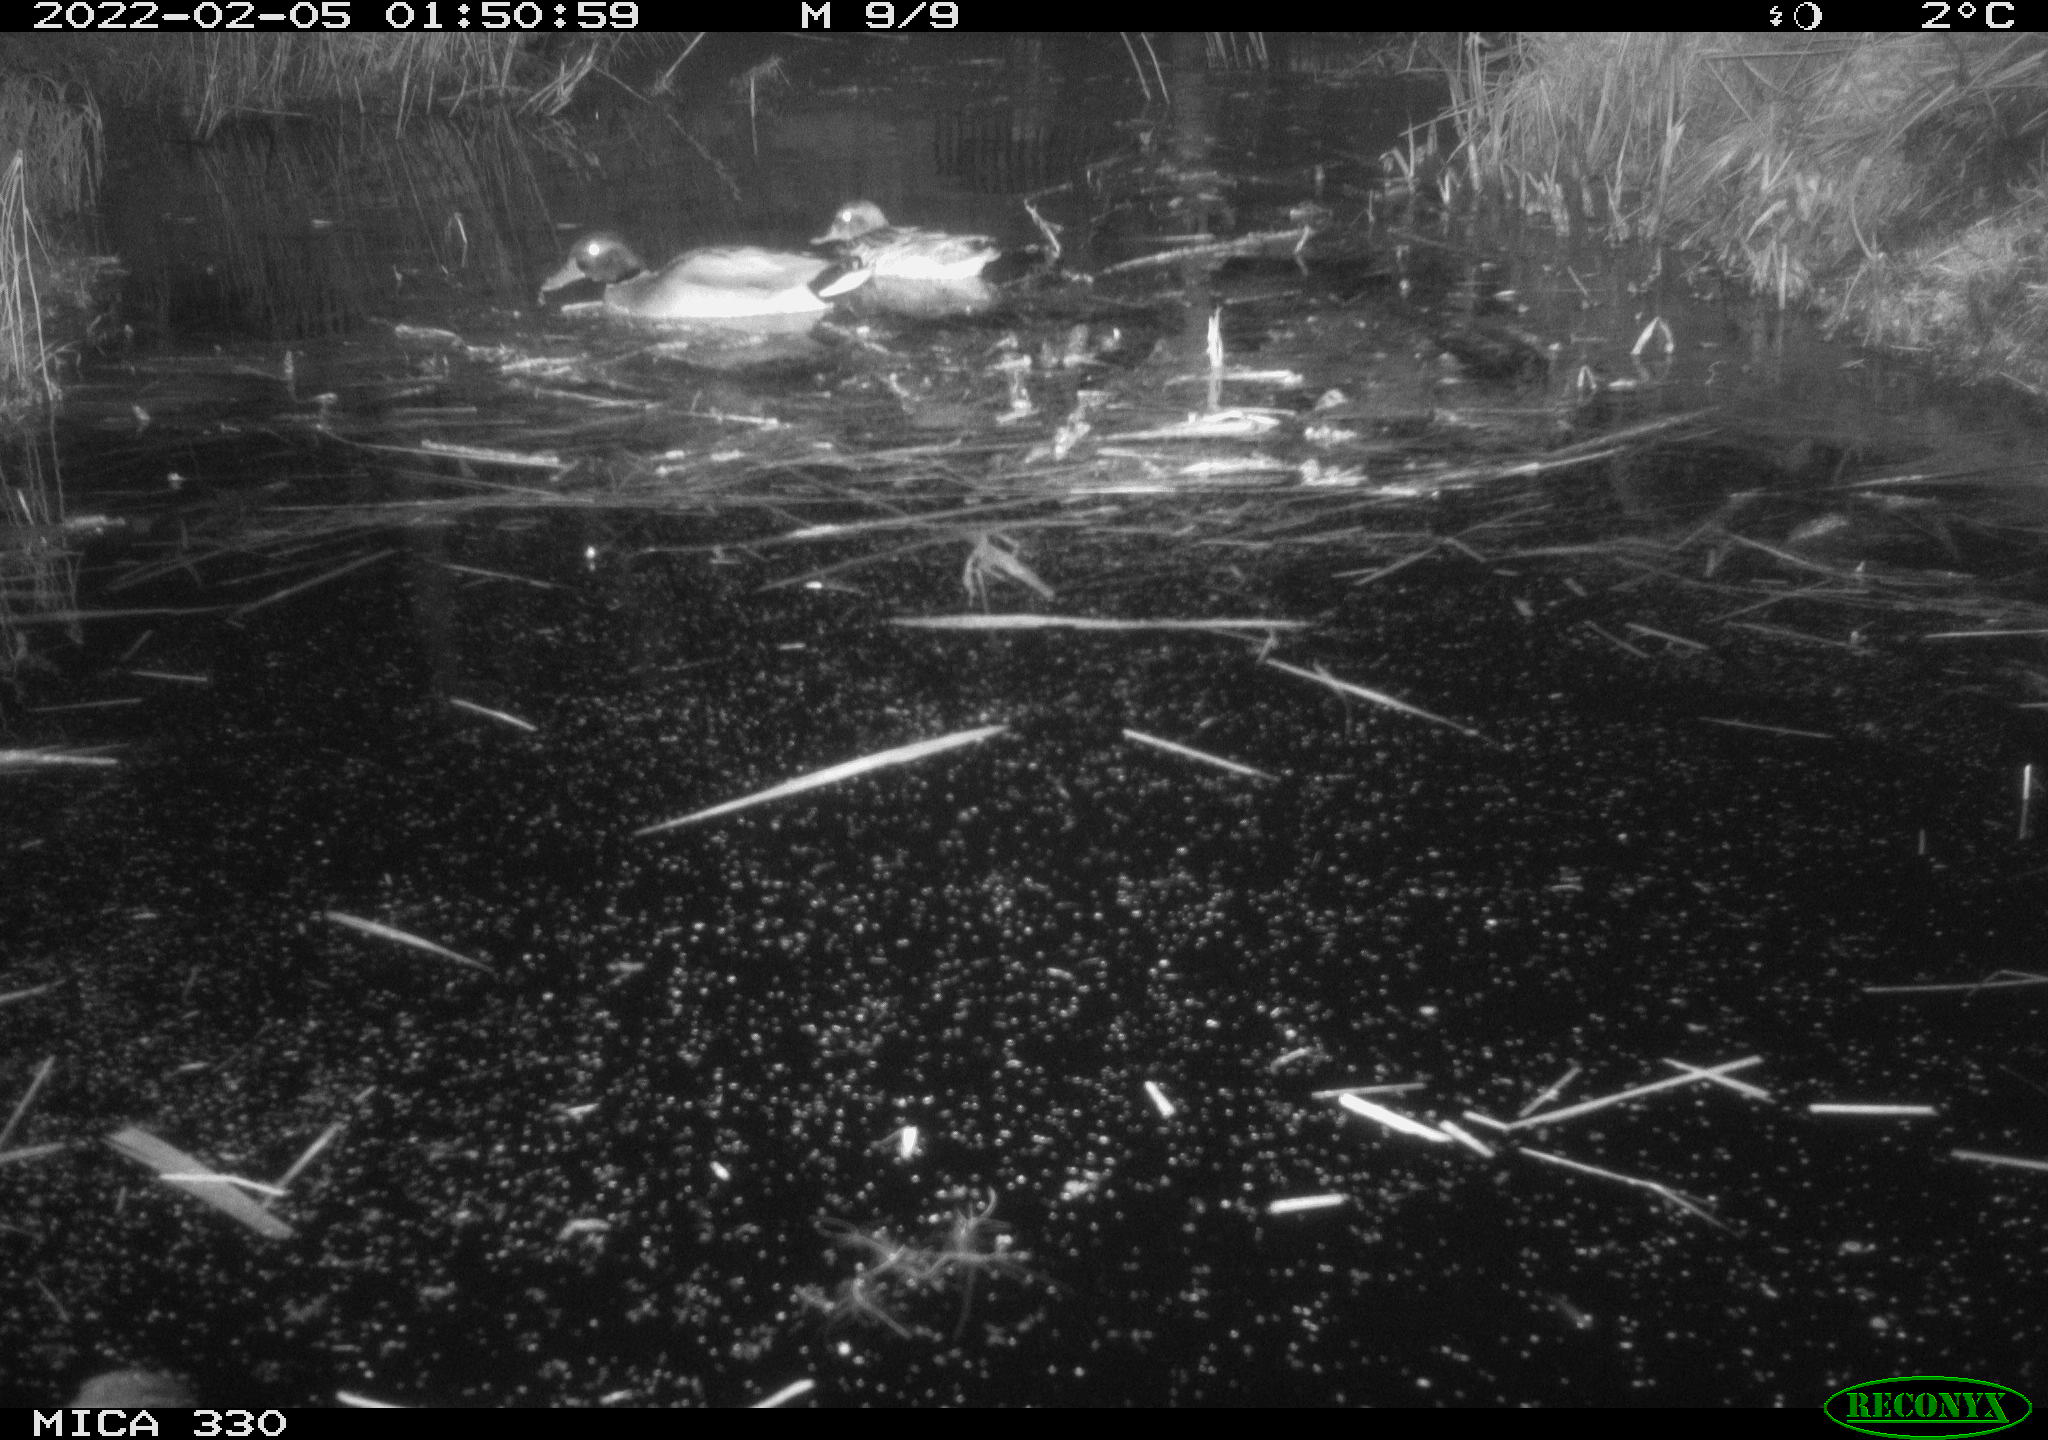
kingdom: Animalia
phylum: Chordata
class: Aves
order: Anseriformes
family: Anatidae
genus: Anas
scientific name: Anas platyrhynchos
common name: Mallard
